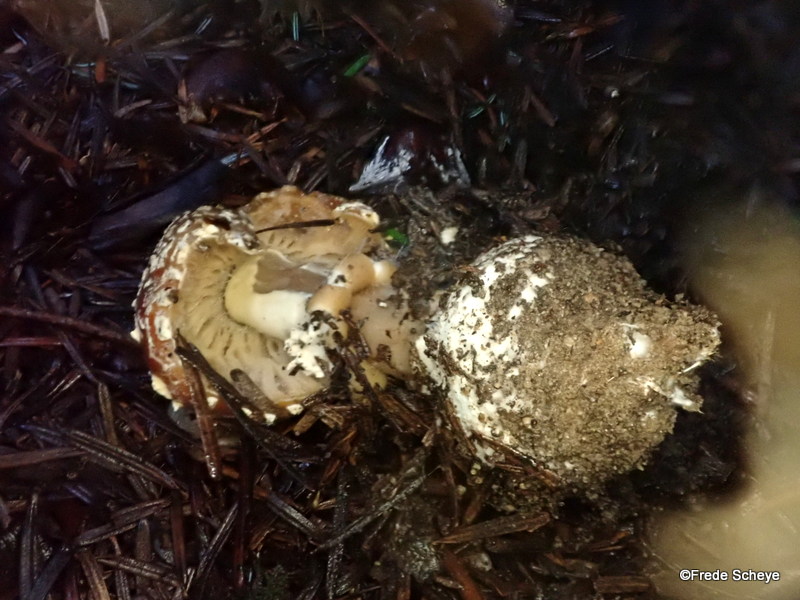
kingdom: Fungi
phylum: Basidiomycota
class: Agaricomycetes
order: Agaricales
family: Amanitaceae
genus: Amanita
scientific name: Amanita muscaria
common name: rød fluesvamp
